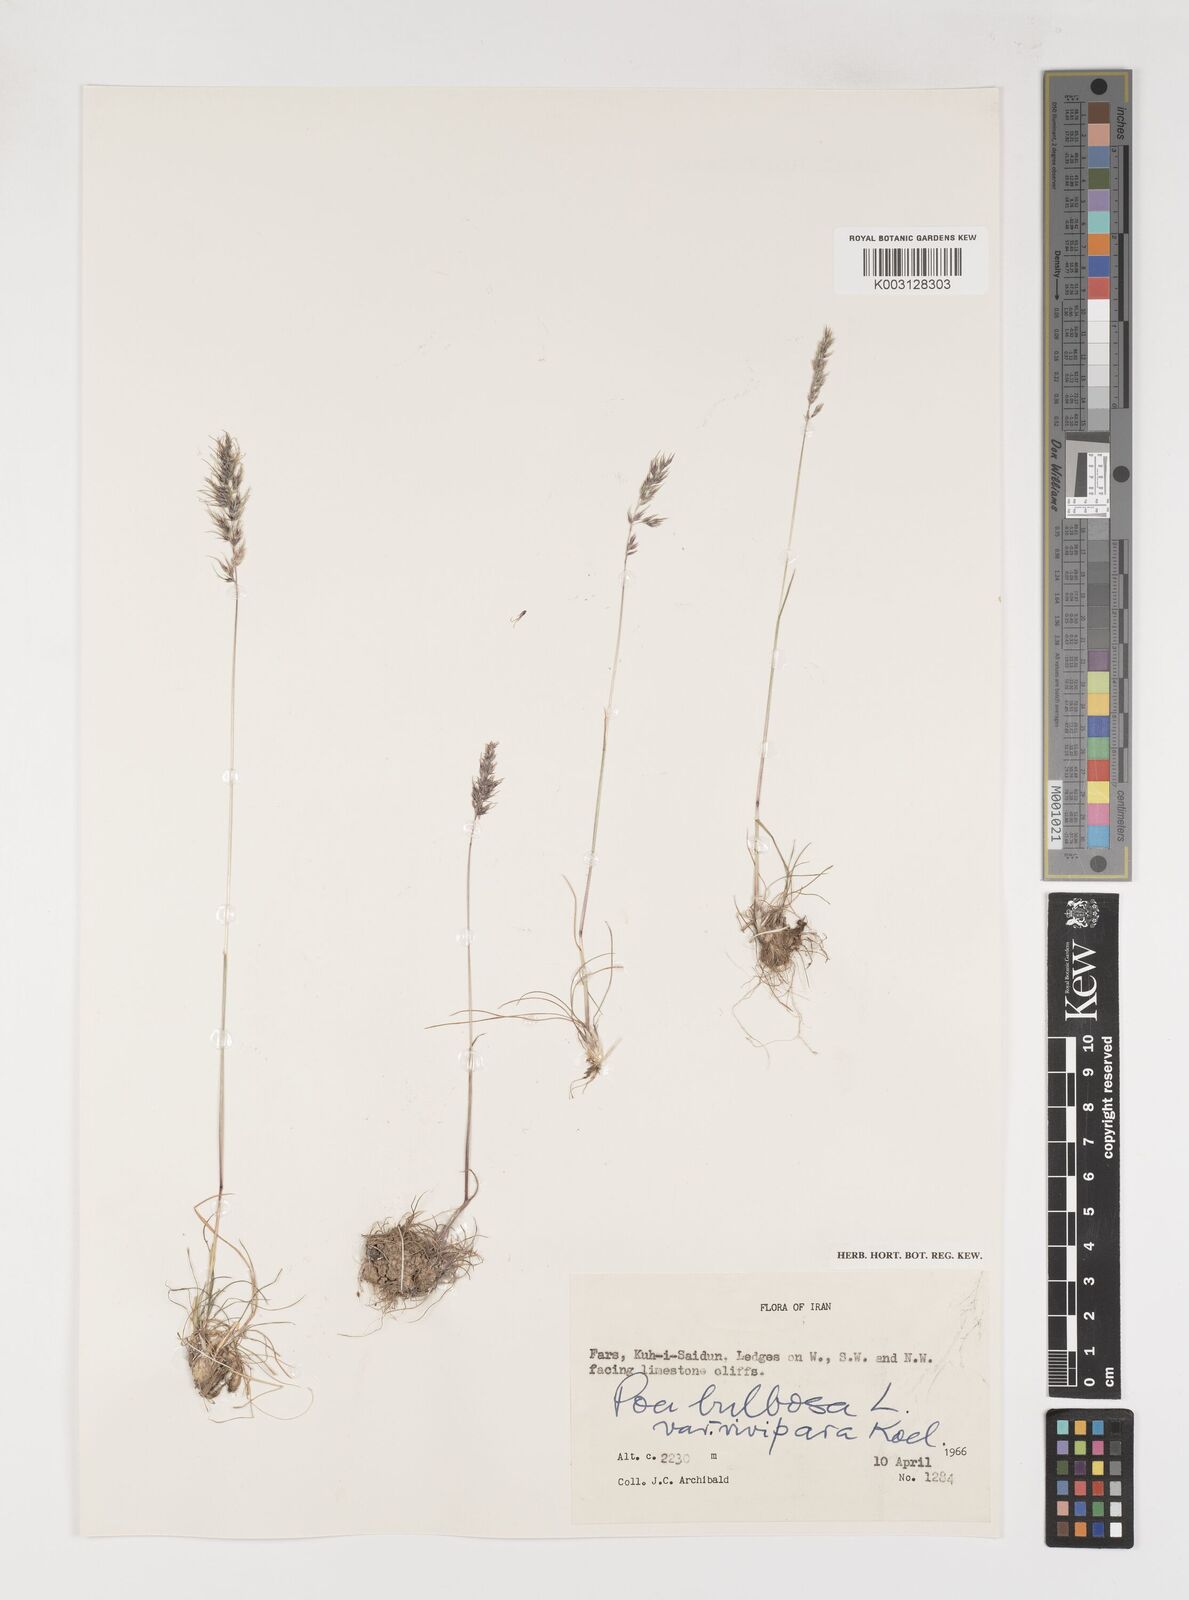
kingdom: Plantae
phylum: Tracheophyta
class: Liliopsida
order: Poales
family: Poaceae
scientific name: Poaceae
